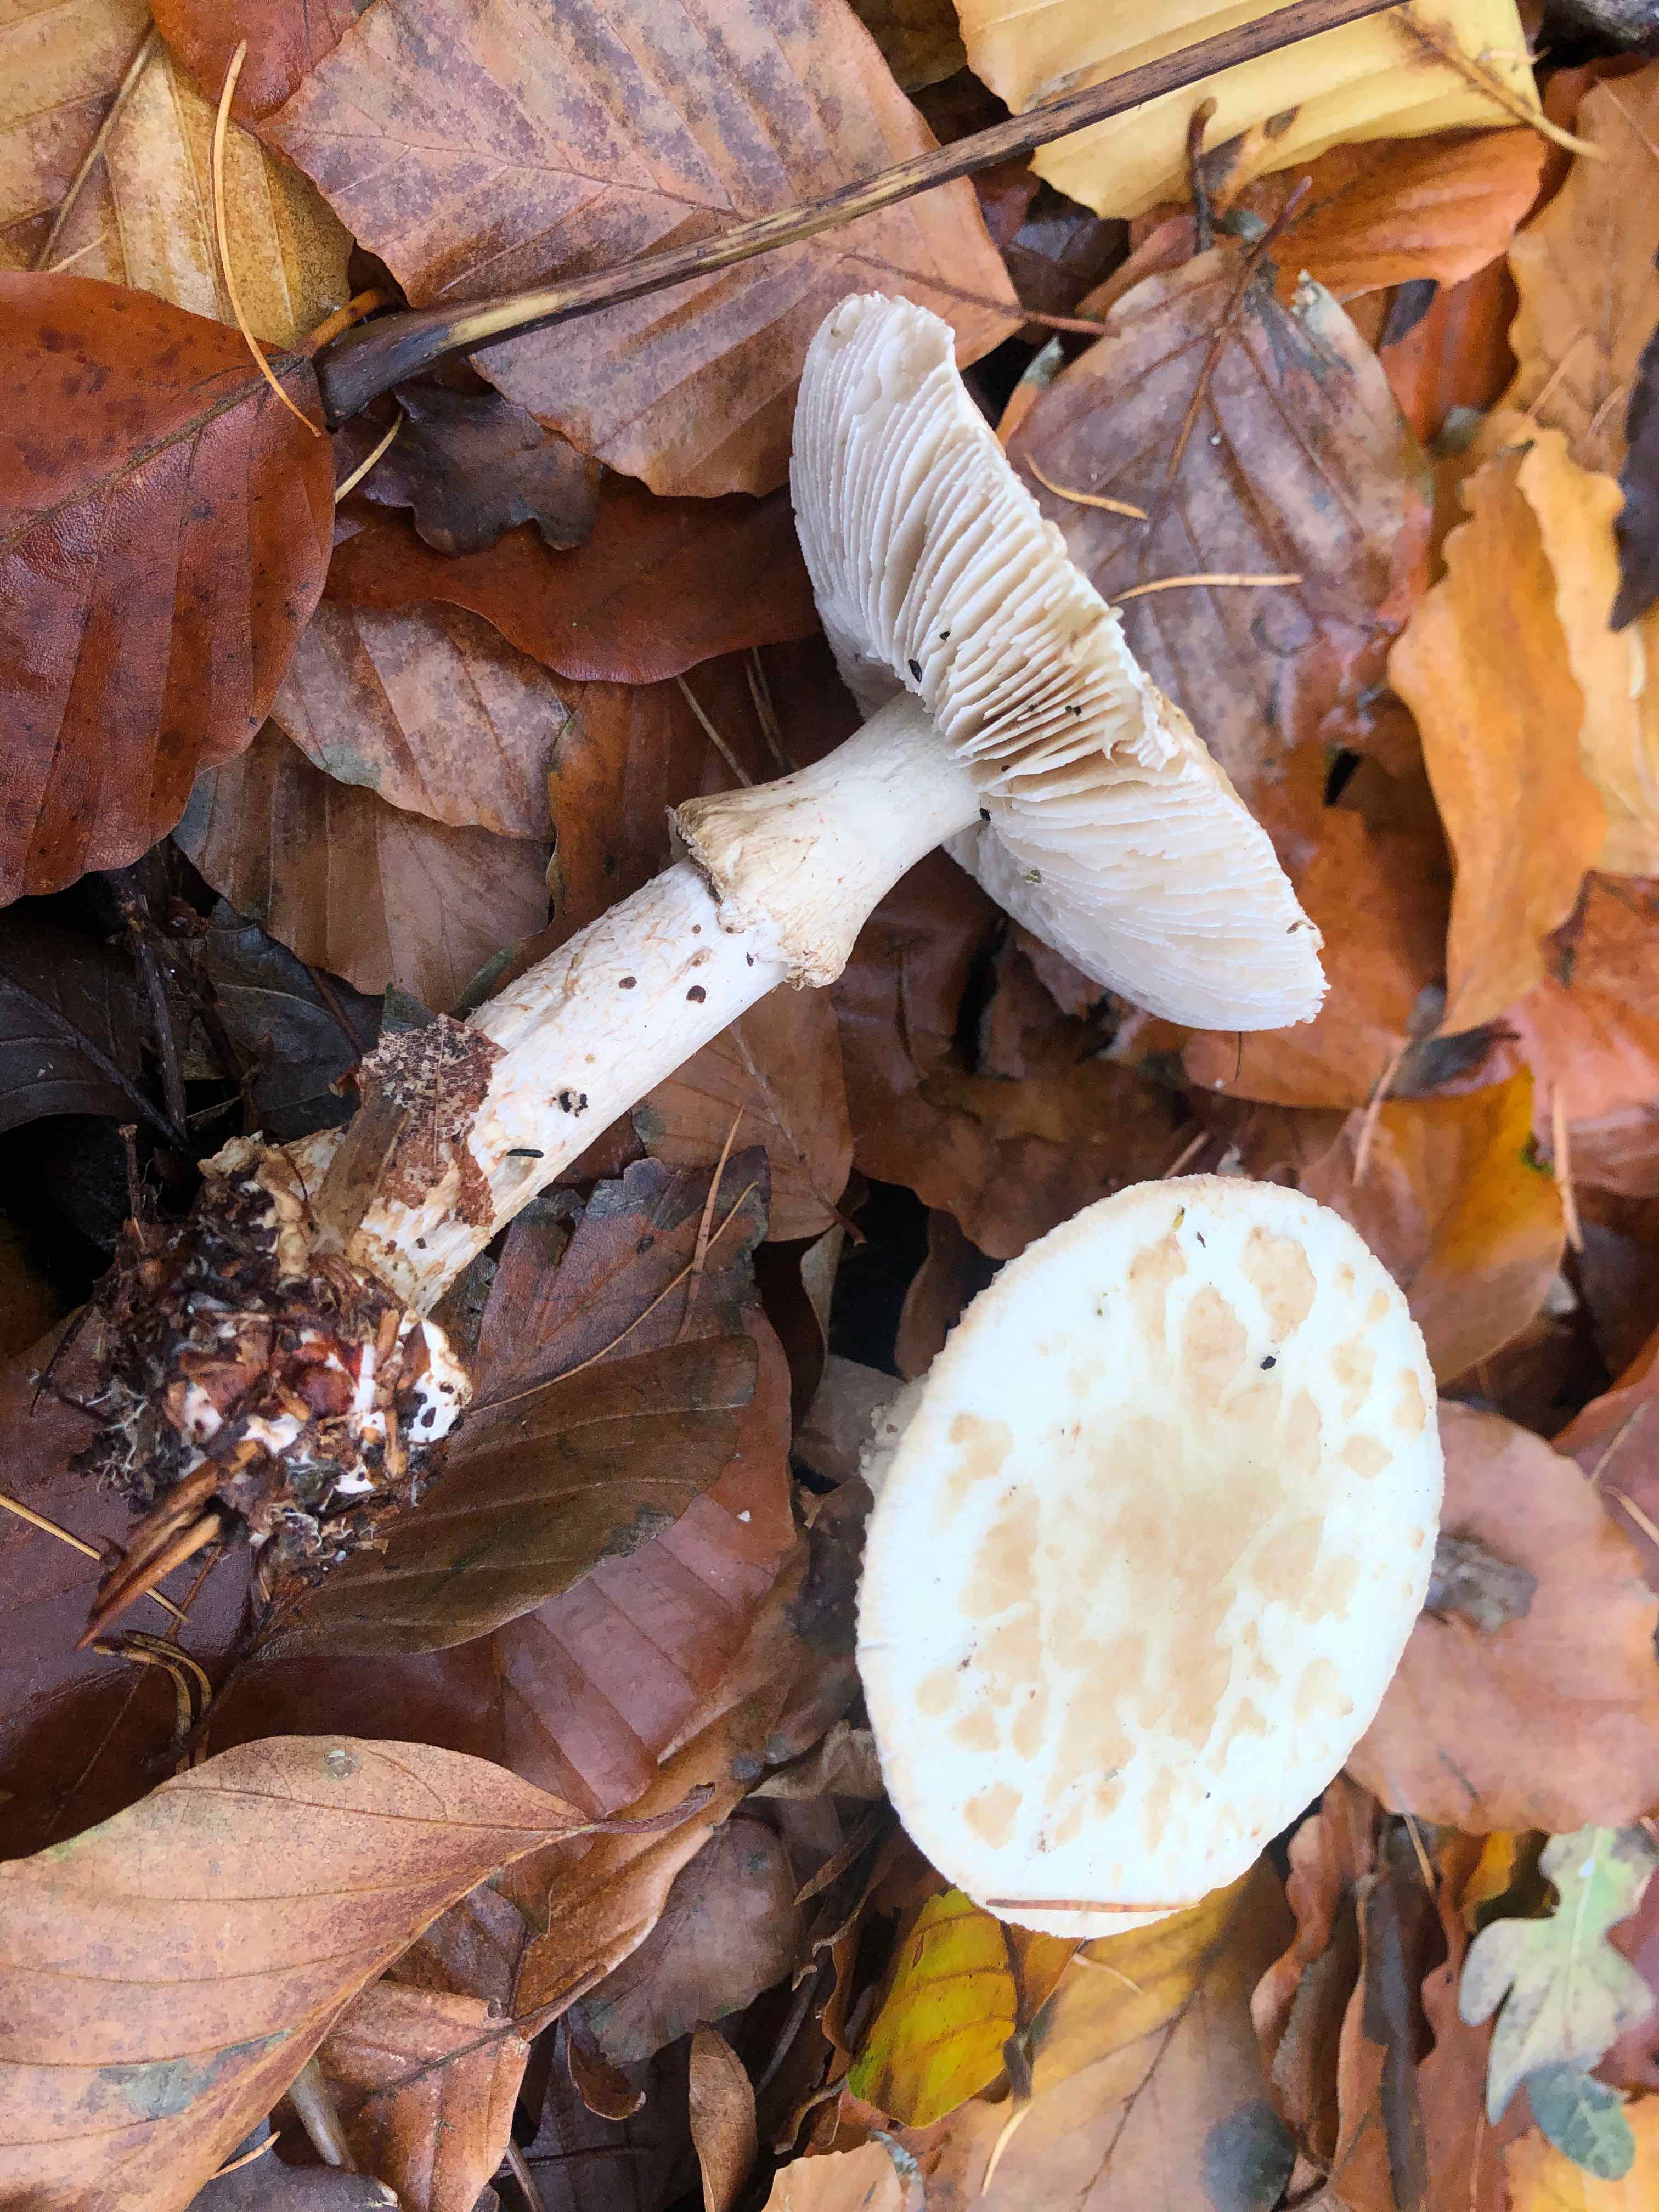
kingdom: Fungi
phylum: Basidiomycota
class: Agaricomycetes
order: Agaricales
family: Amanitaceae
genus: Amanita
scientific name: Amanita citrina
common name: kugleknoldet fluesvamp
